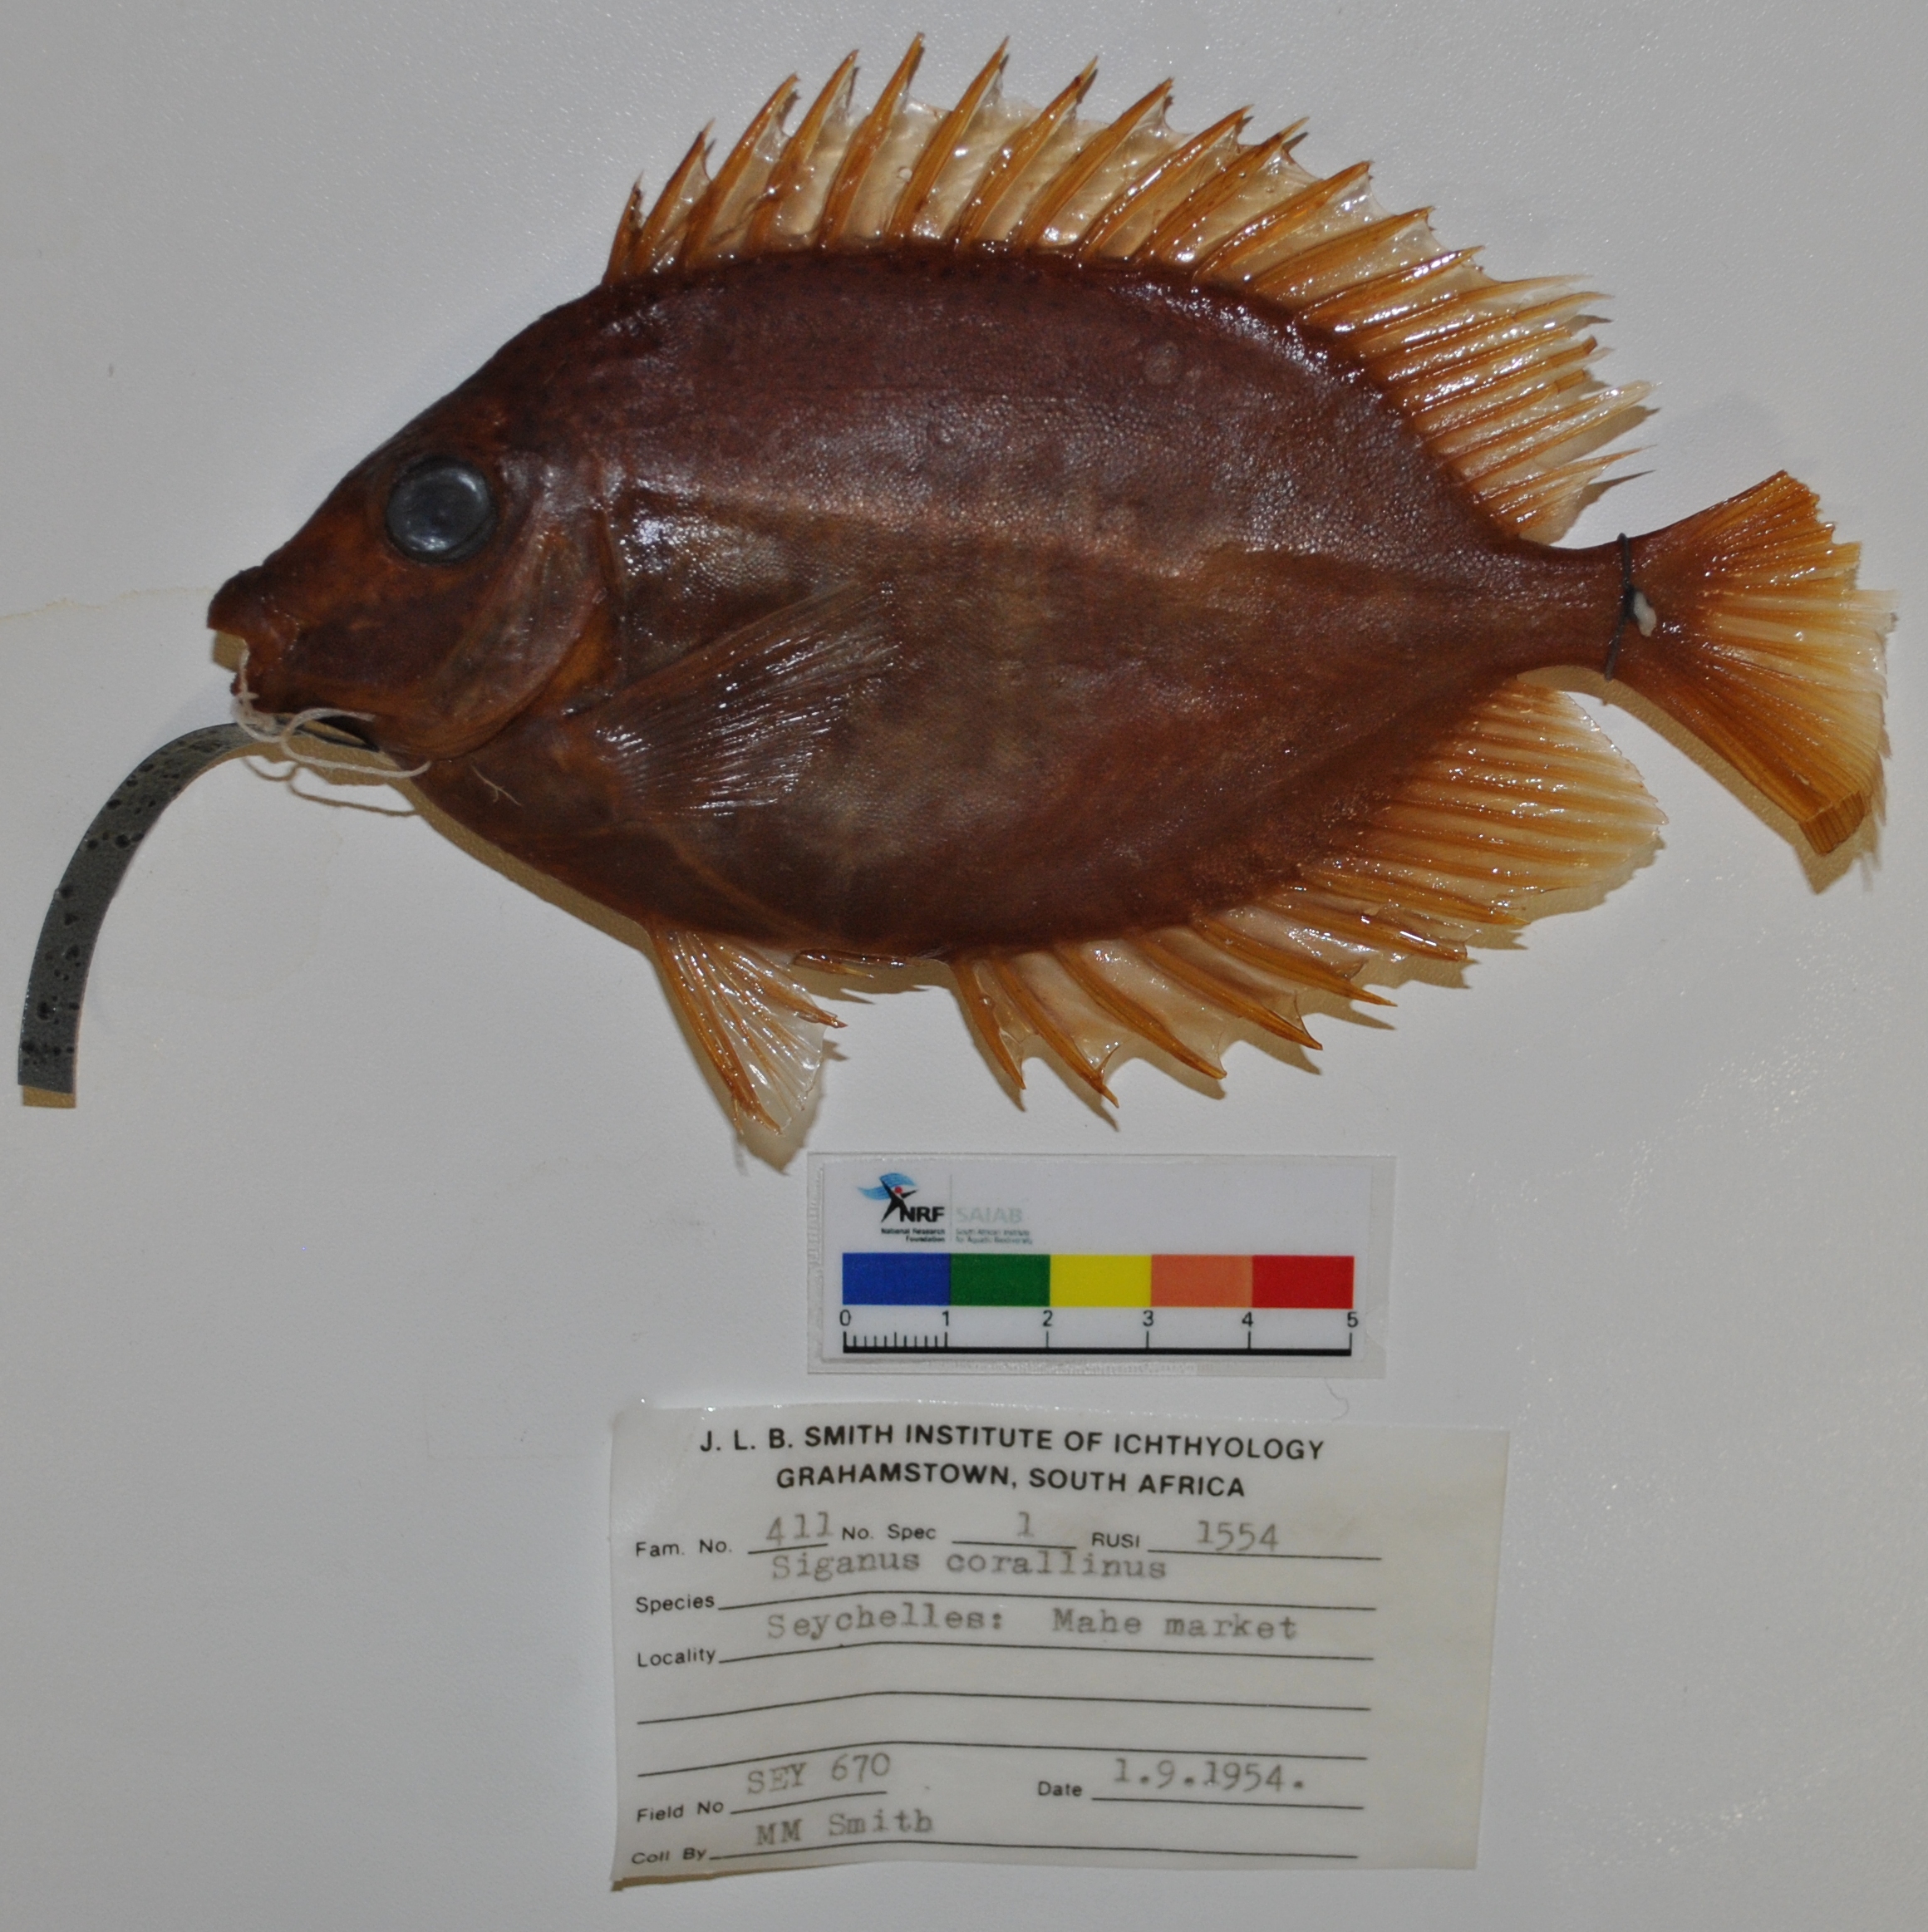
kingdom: Animalia
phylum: Chordata
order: Perciformes
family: Siganidae
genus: Siganus
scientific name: Siganus corallinus
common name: Coral rabbitfish
